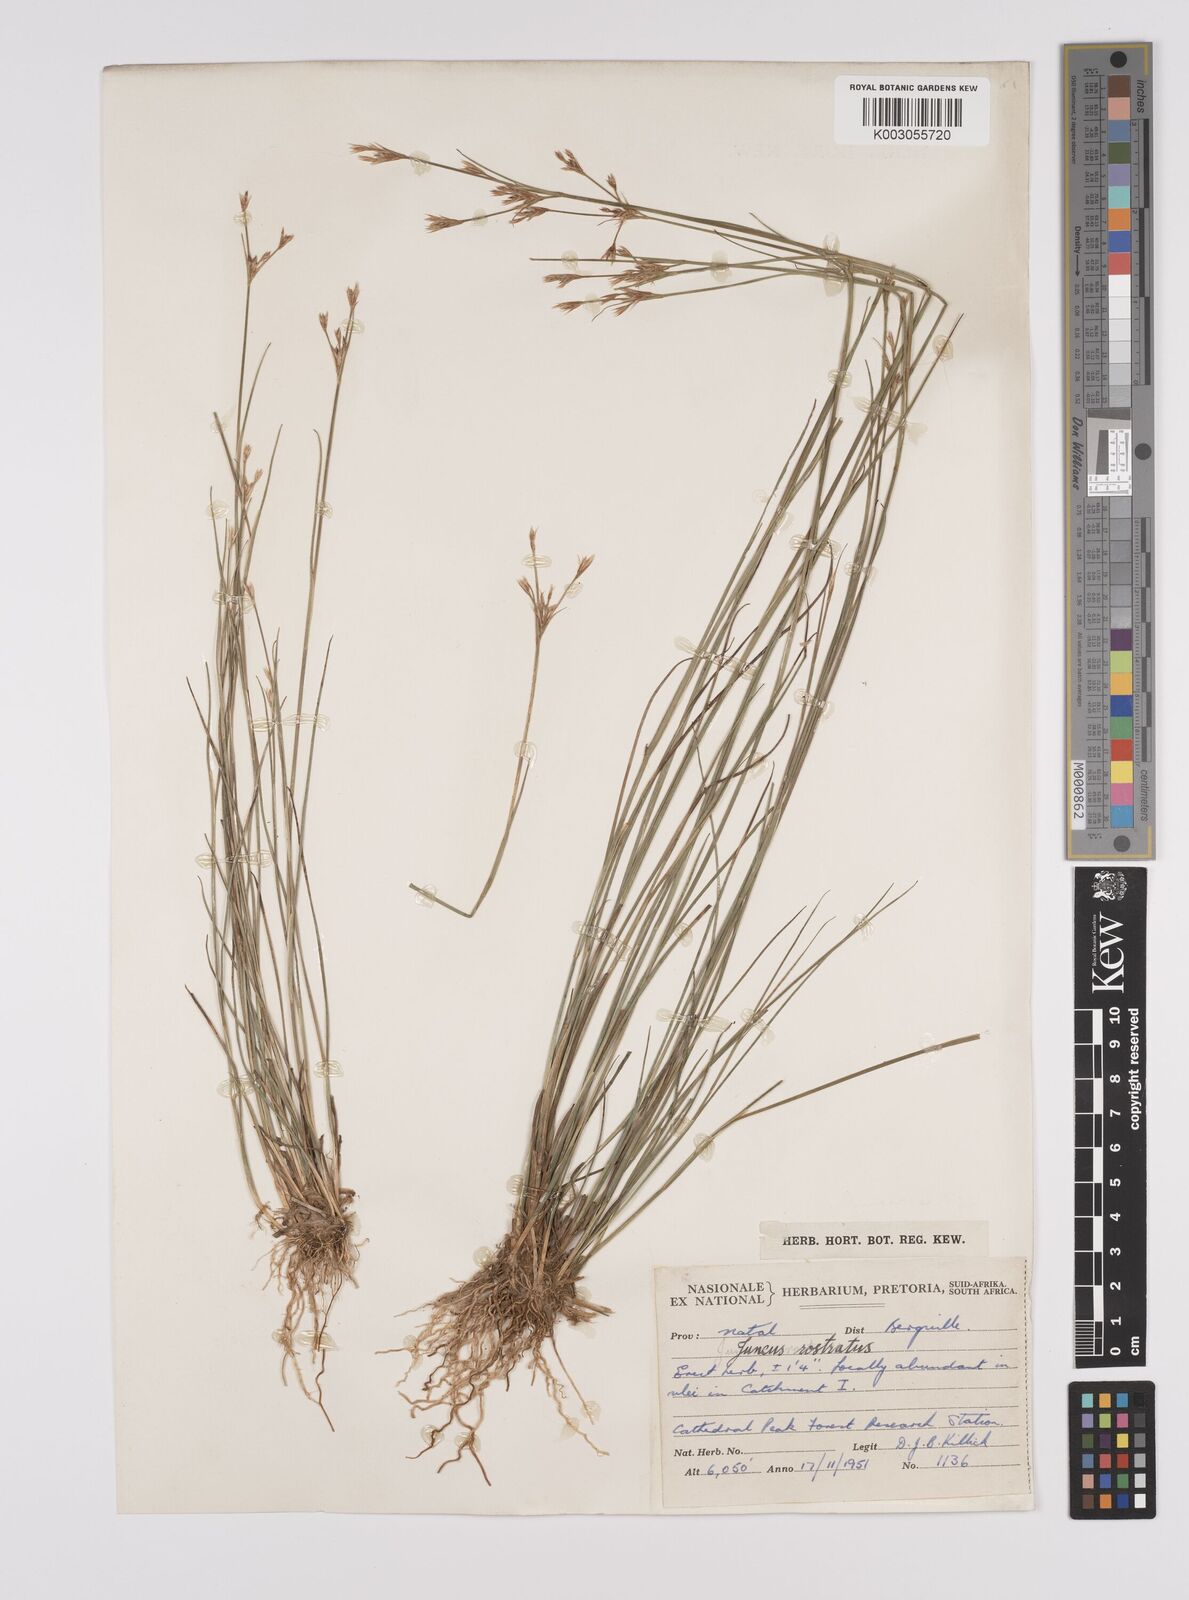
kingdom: Plantae
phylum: Tracheophyta
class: Liliopsida
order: Poales
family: Juncaceae
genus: Juncus
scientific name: Juncus exsertus
